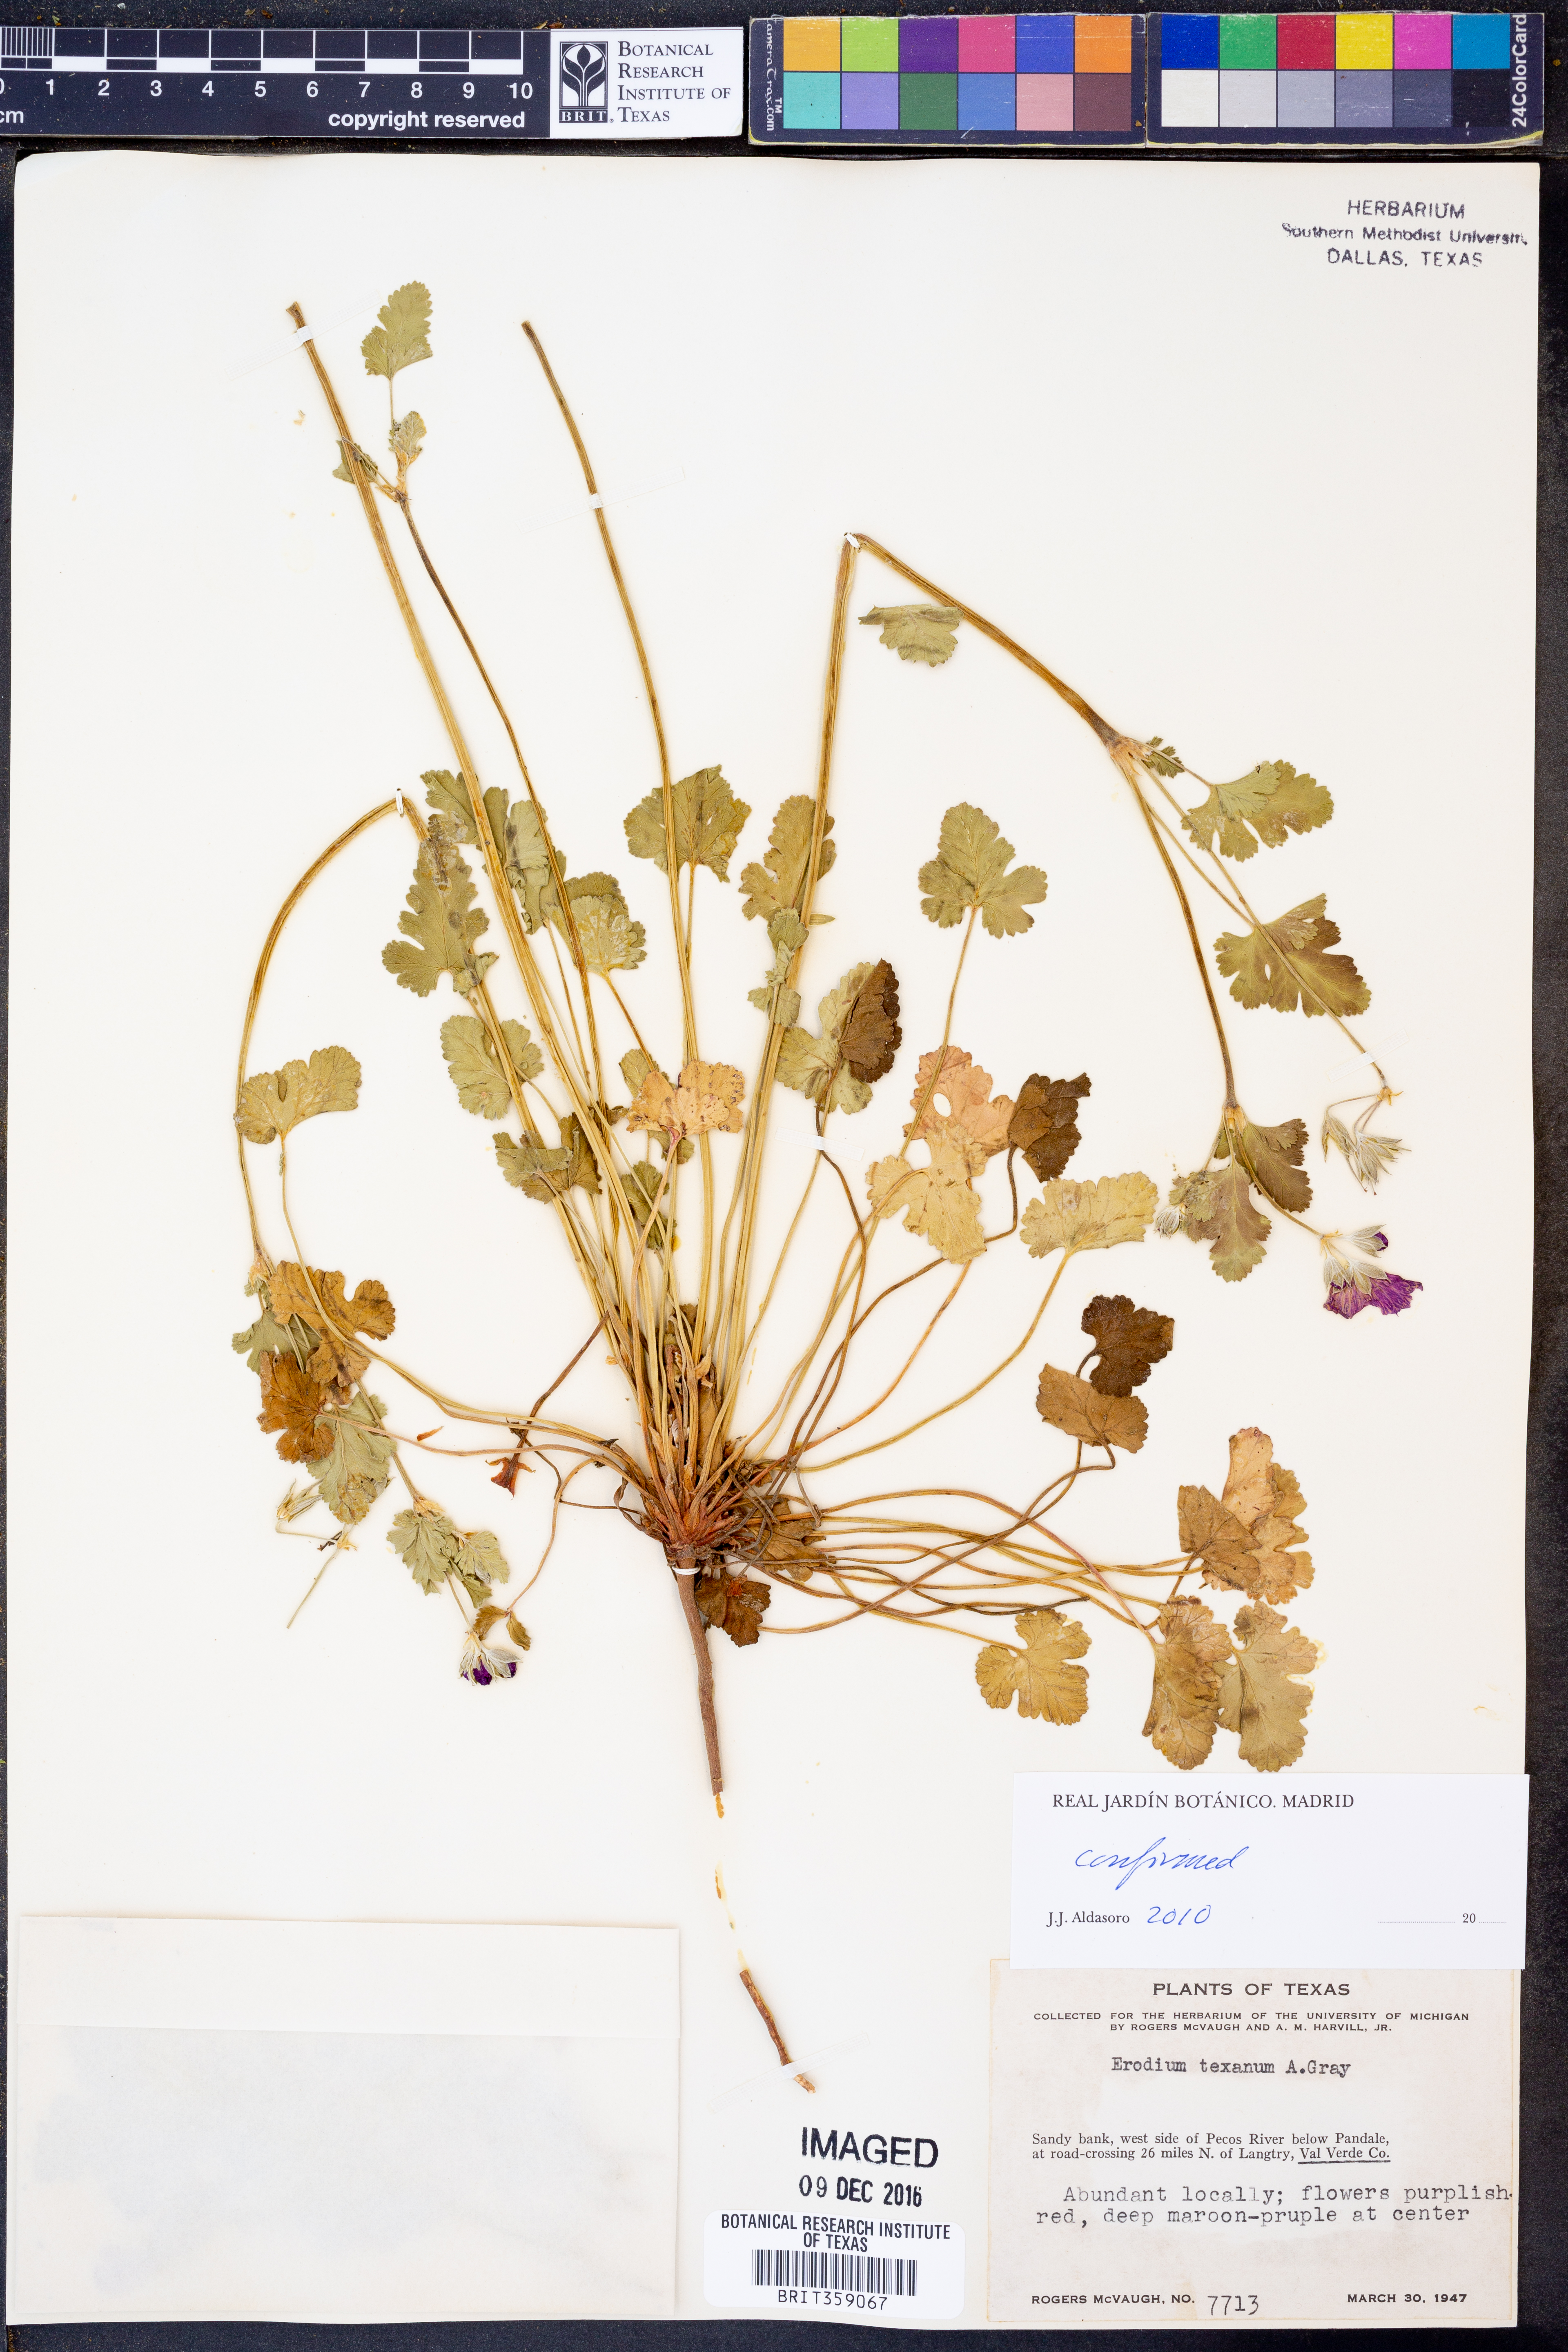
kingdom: Plantae
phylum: Tracheophyta
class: Magnoliopsida
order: Geraniales
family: Geraniaceae
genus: Erodium
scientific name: Erodium texanum
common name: Texas stork's-bill
